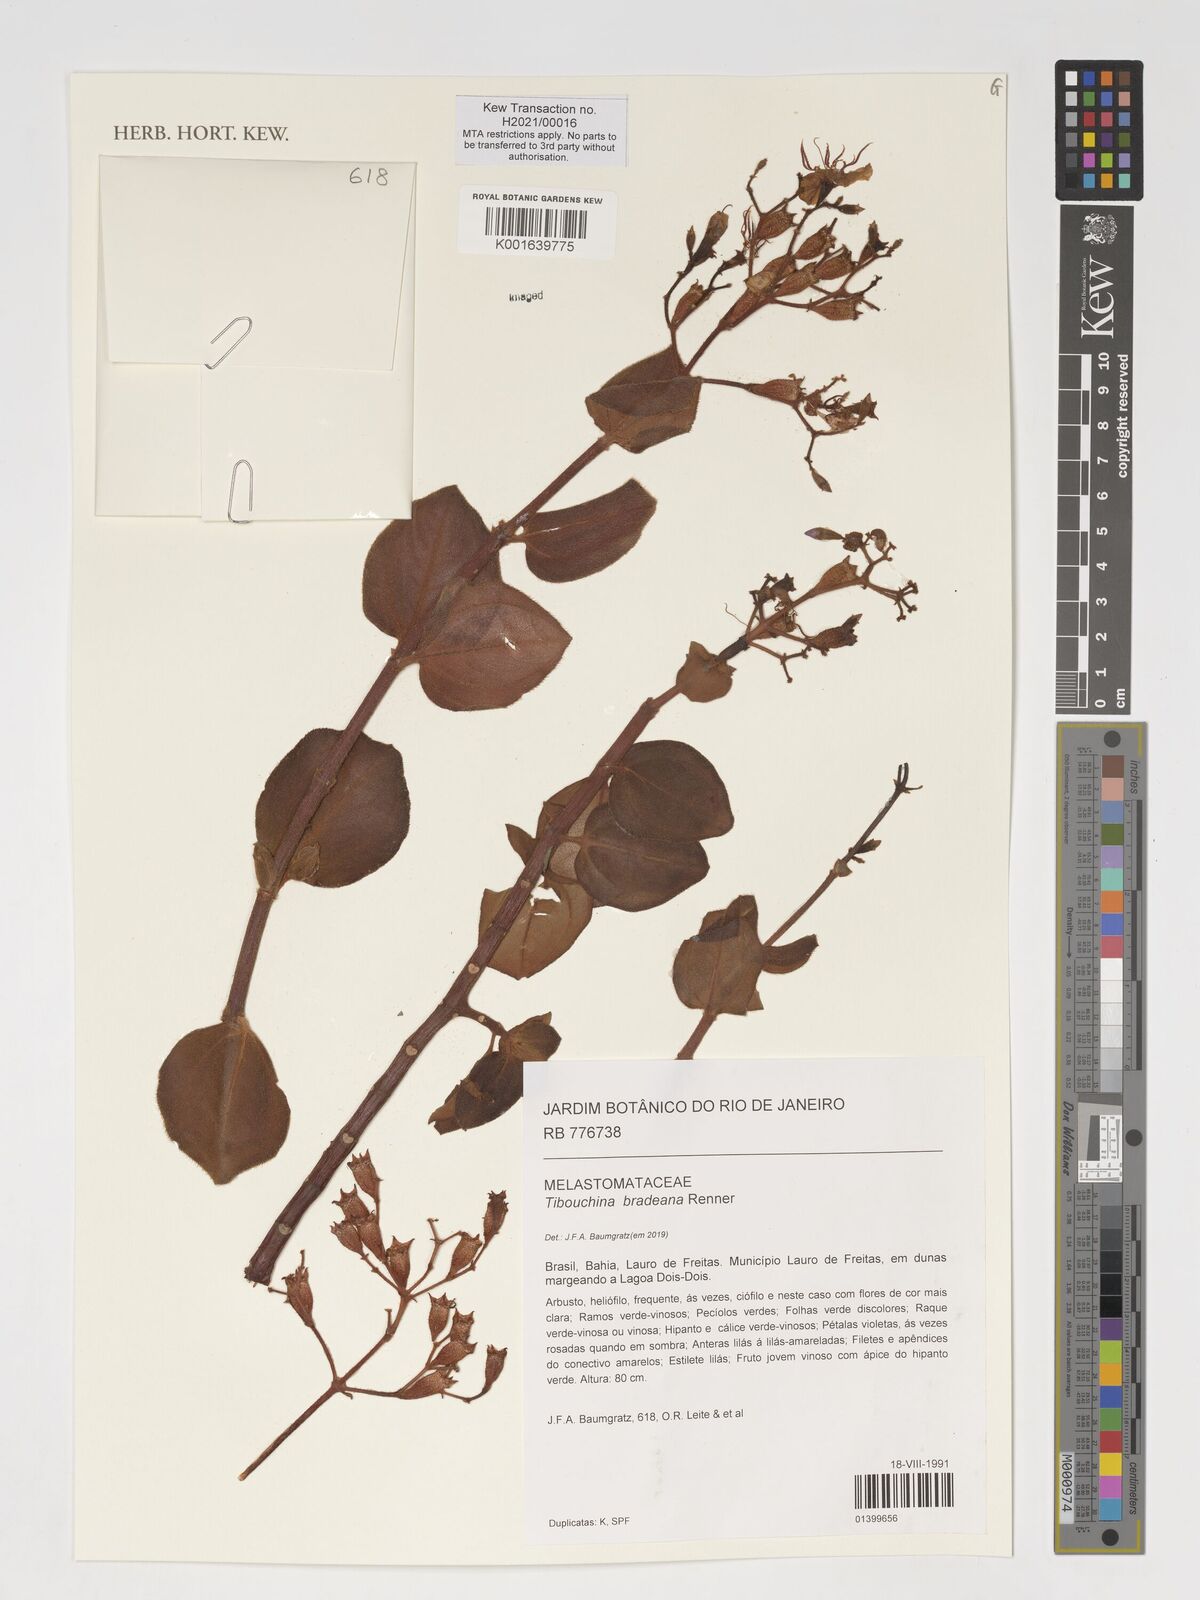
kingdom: Plantae
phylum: Tracheophyta
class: Magnoliopsida
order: Myrtales
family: Melastomataceae
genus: Pleroma
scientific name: Pleroma edmundoi
